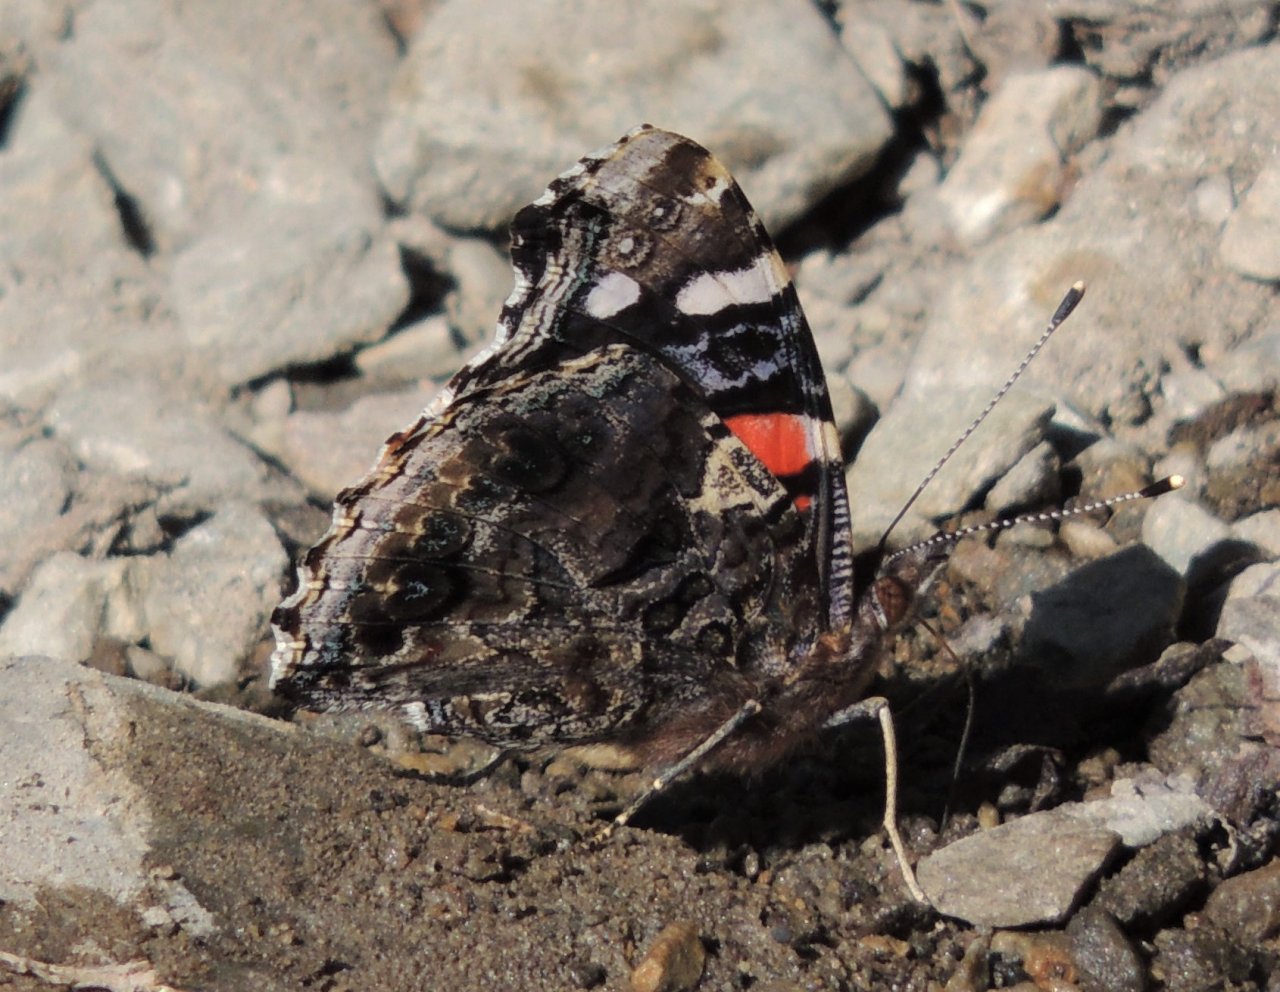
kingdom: Animalia
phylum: Arthropoda
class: Insecta
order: Lepidoptera
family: Nymphalidae
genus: Vanessa
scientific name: Vanessa atalanta
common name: Red Admiral
